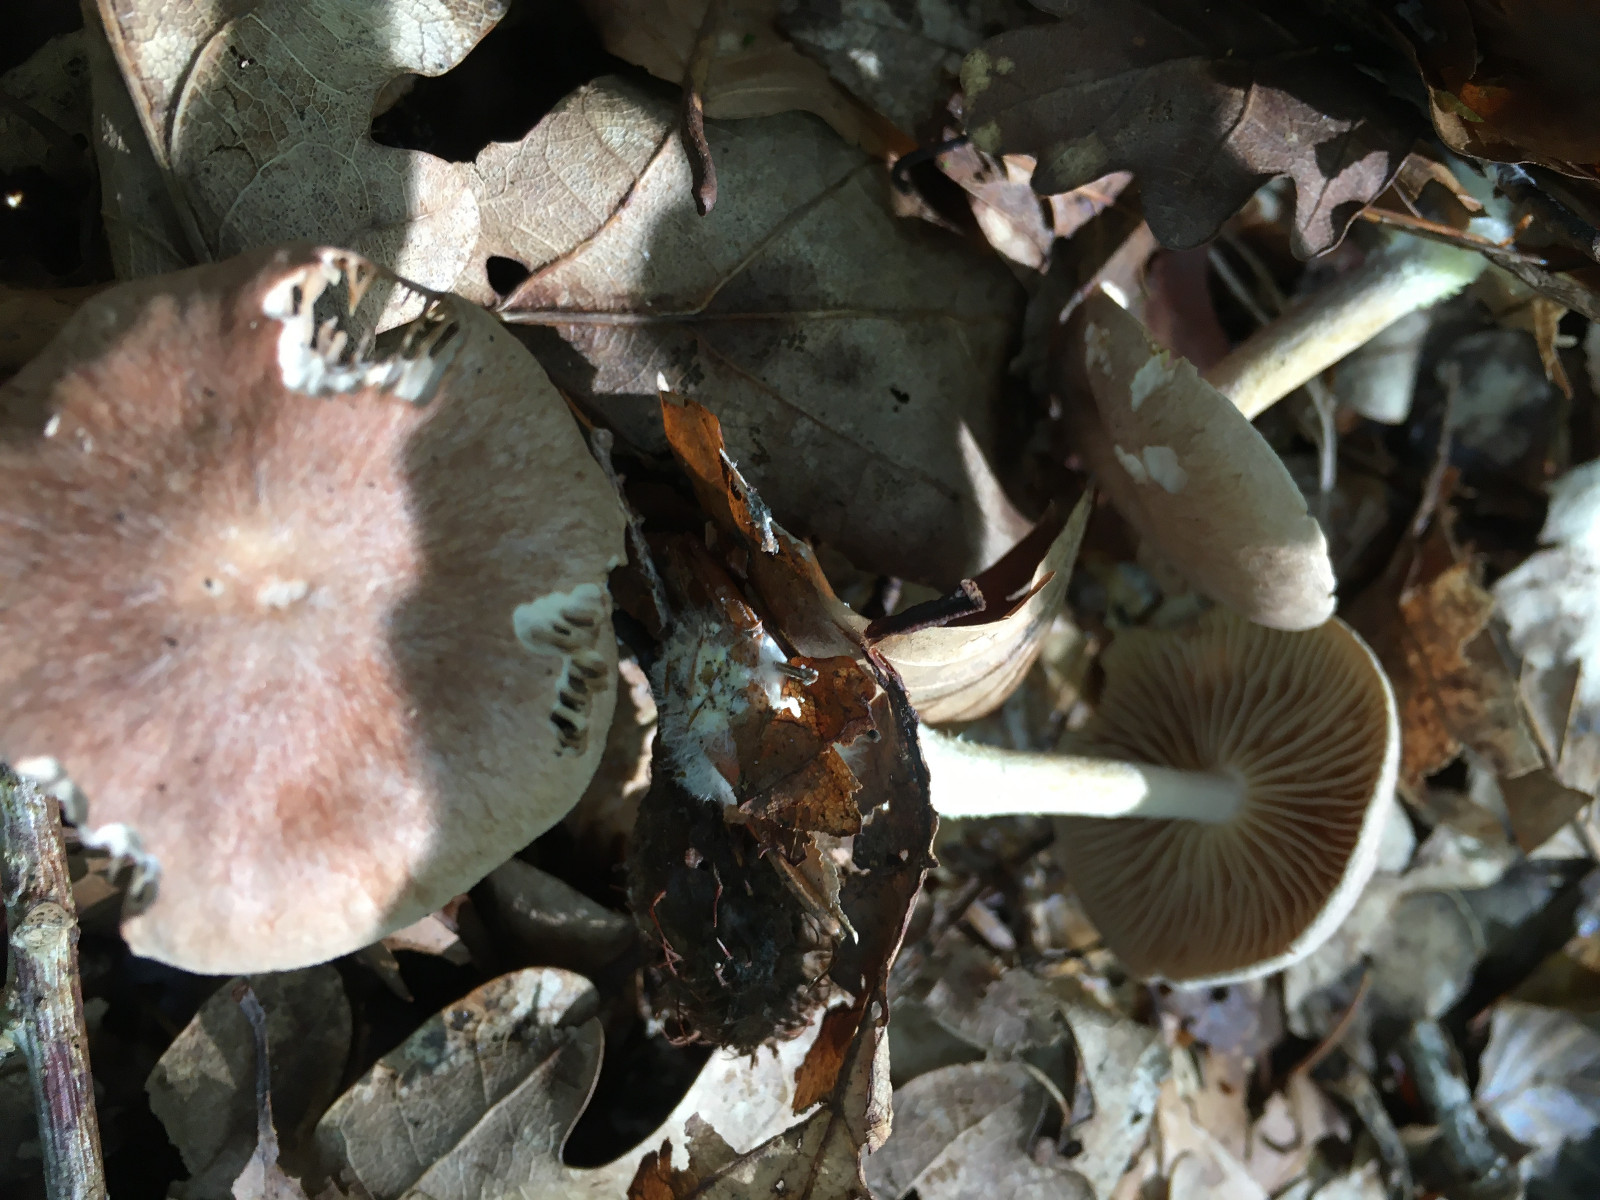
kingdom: Fungi
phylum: Basidiomycota
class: Agaricomycetes
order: Agaricales
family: Omphalotaceae
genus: Collybiopsis
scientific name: Collybiopsis peronata
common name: bestøvlet fladhat
